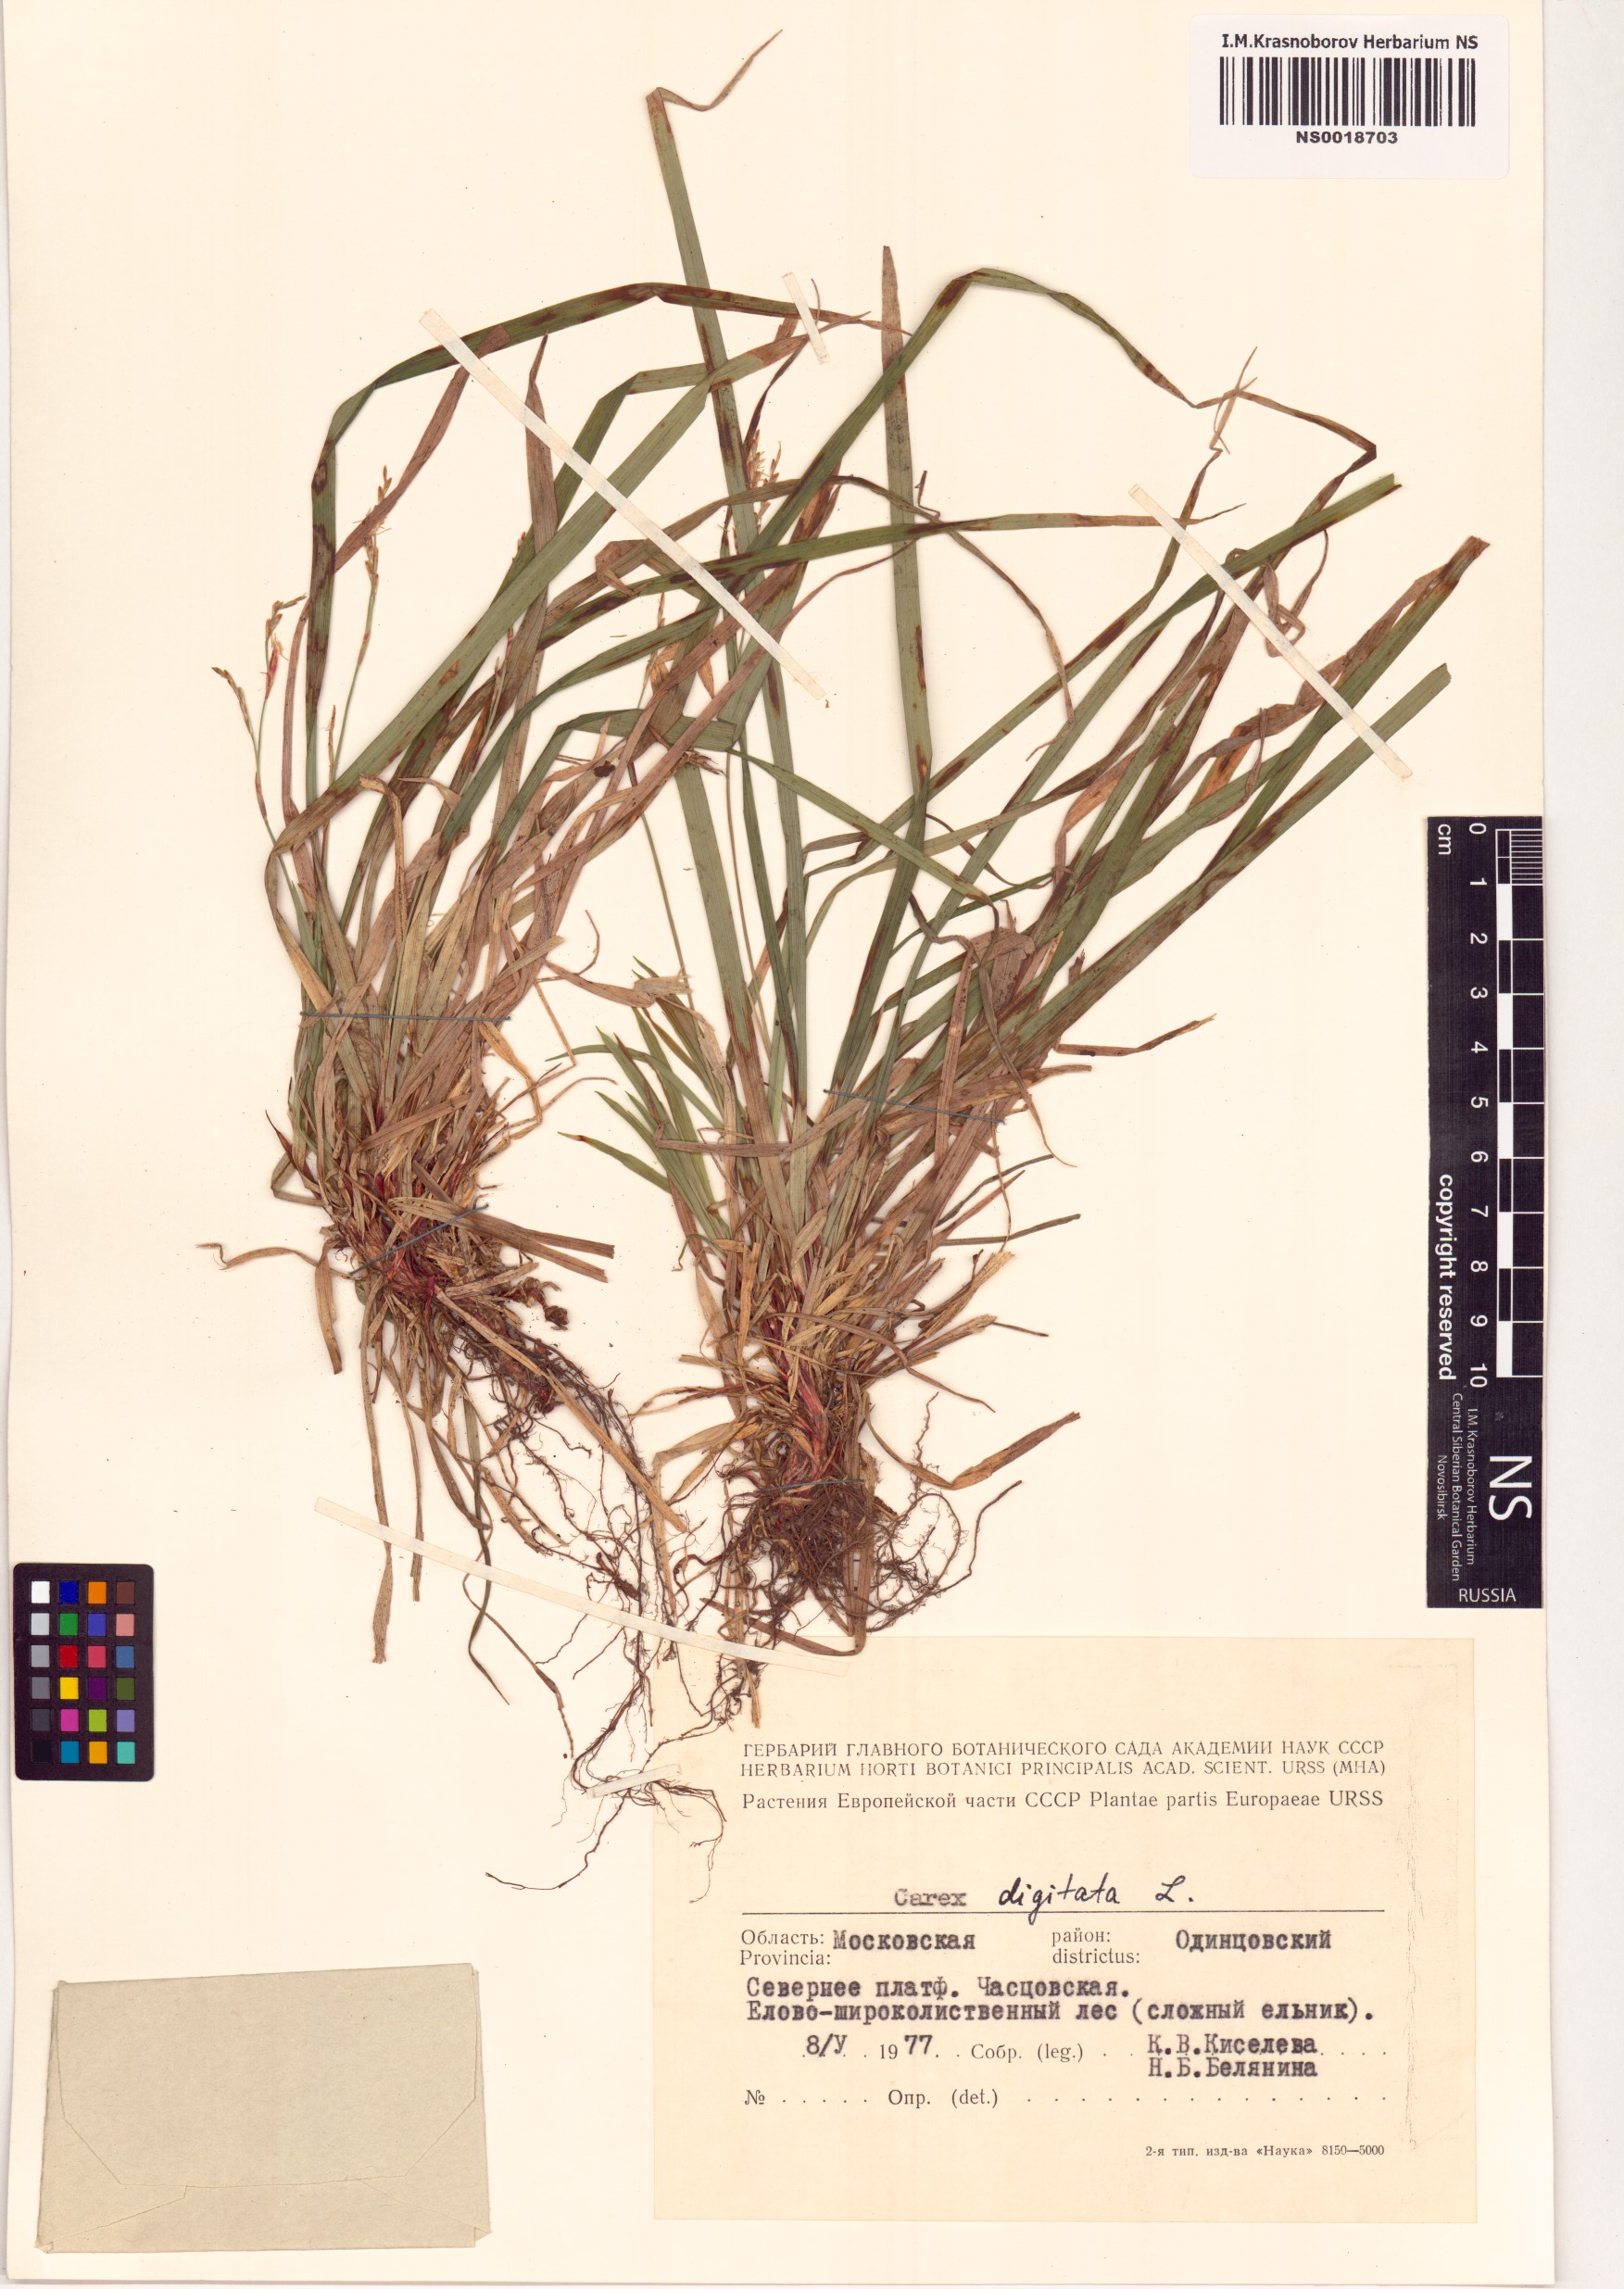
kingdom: Plantae
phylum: Tracheophyta
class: Liliopsida
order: Poales
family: Cyperaceae
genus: Carex
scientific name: Carex digitata
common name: Fingered sedge
